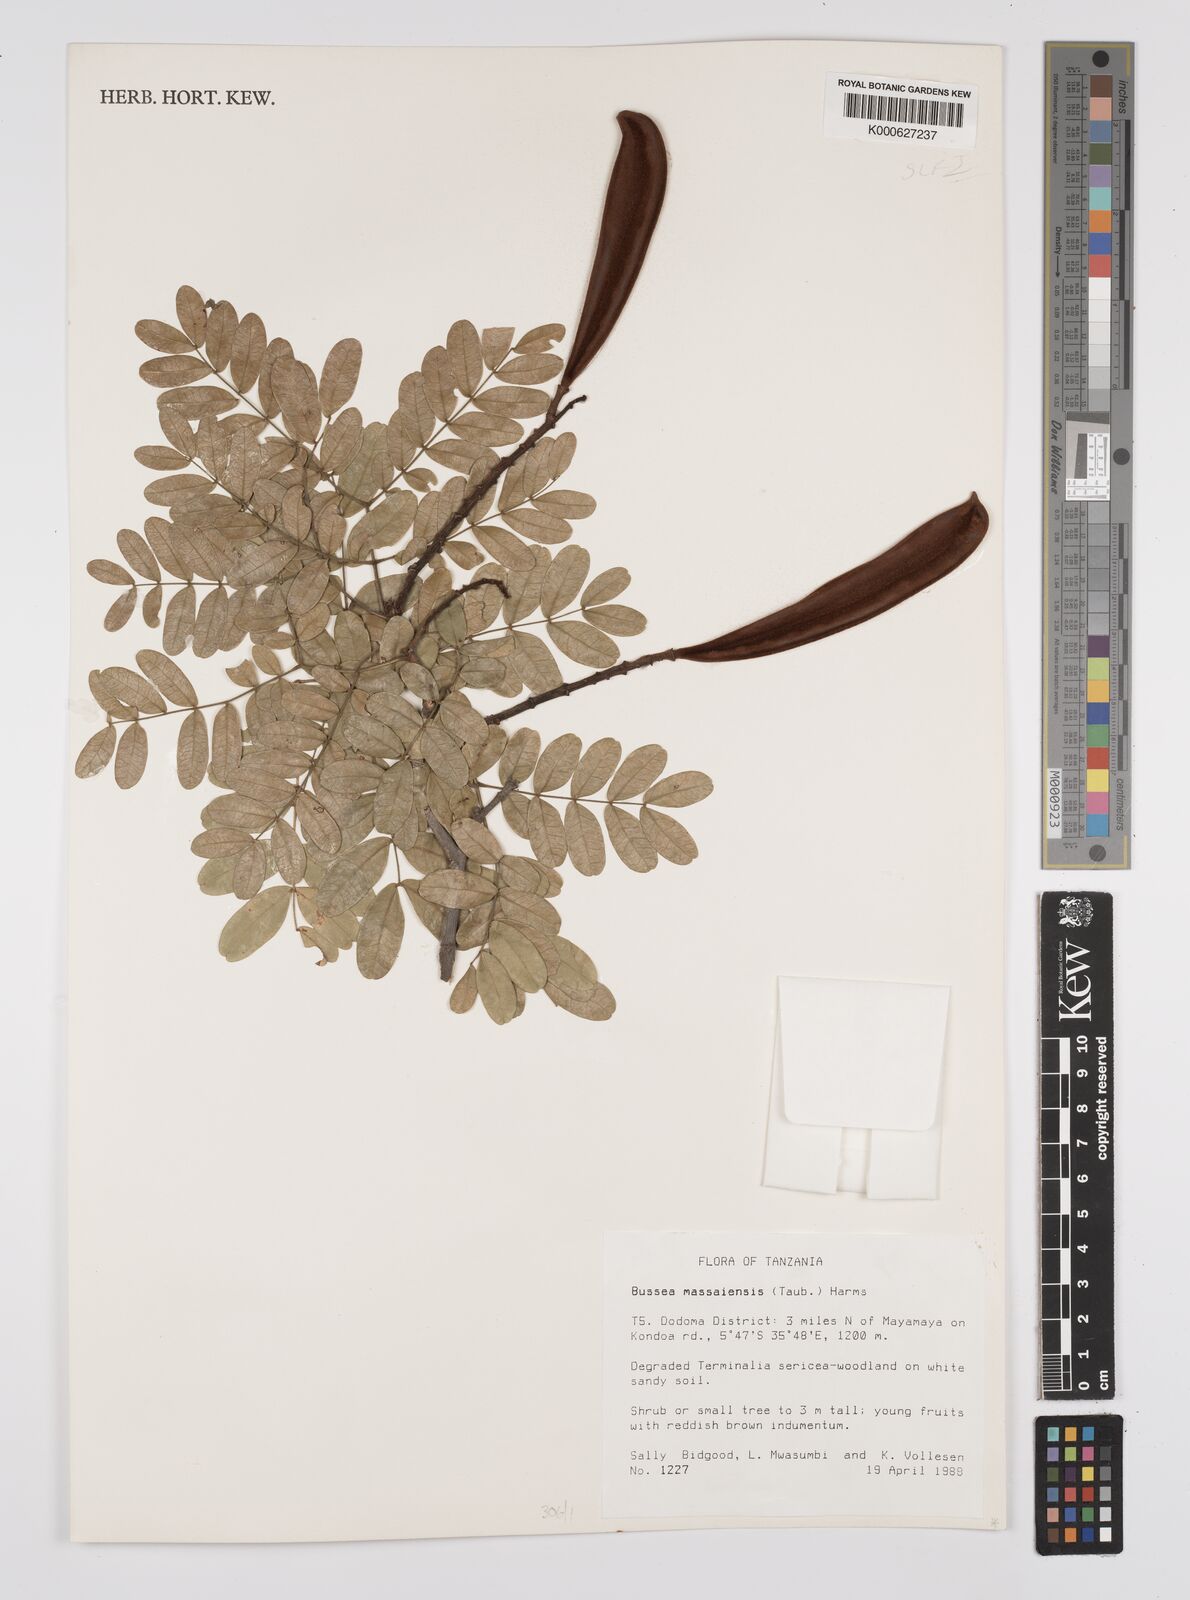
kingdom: Plantae
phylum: Tracheophyta
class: Magnoliopsida
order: Fabales
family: Fabaceae
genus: Bussea
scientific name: Bussea massaiensis
